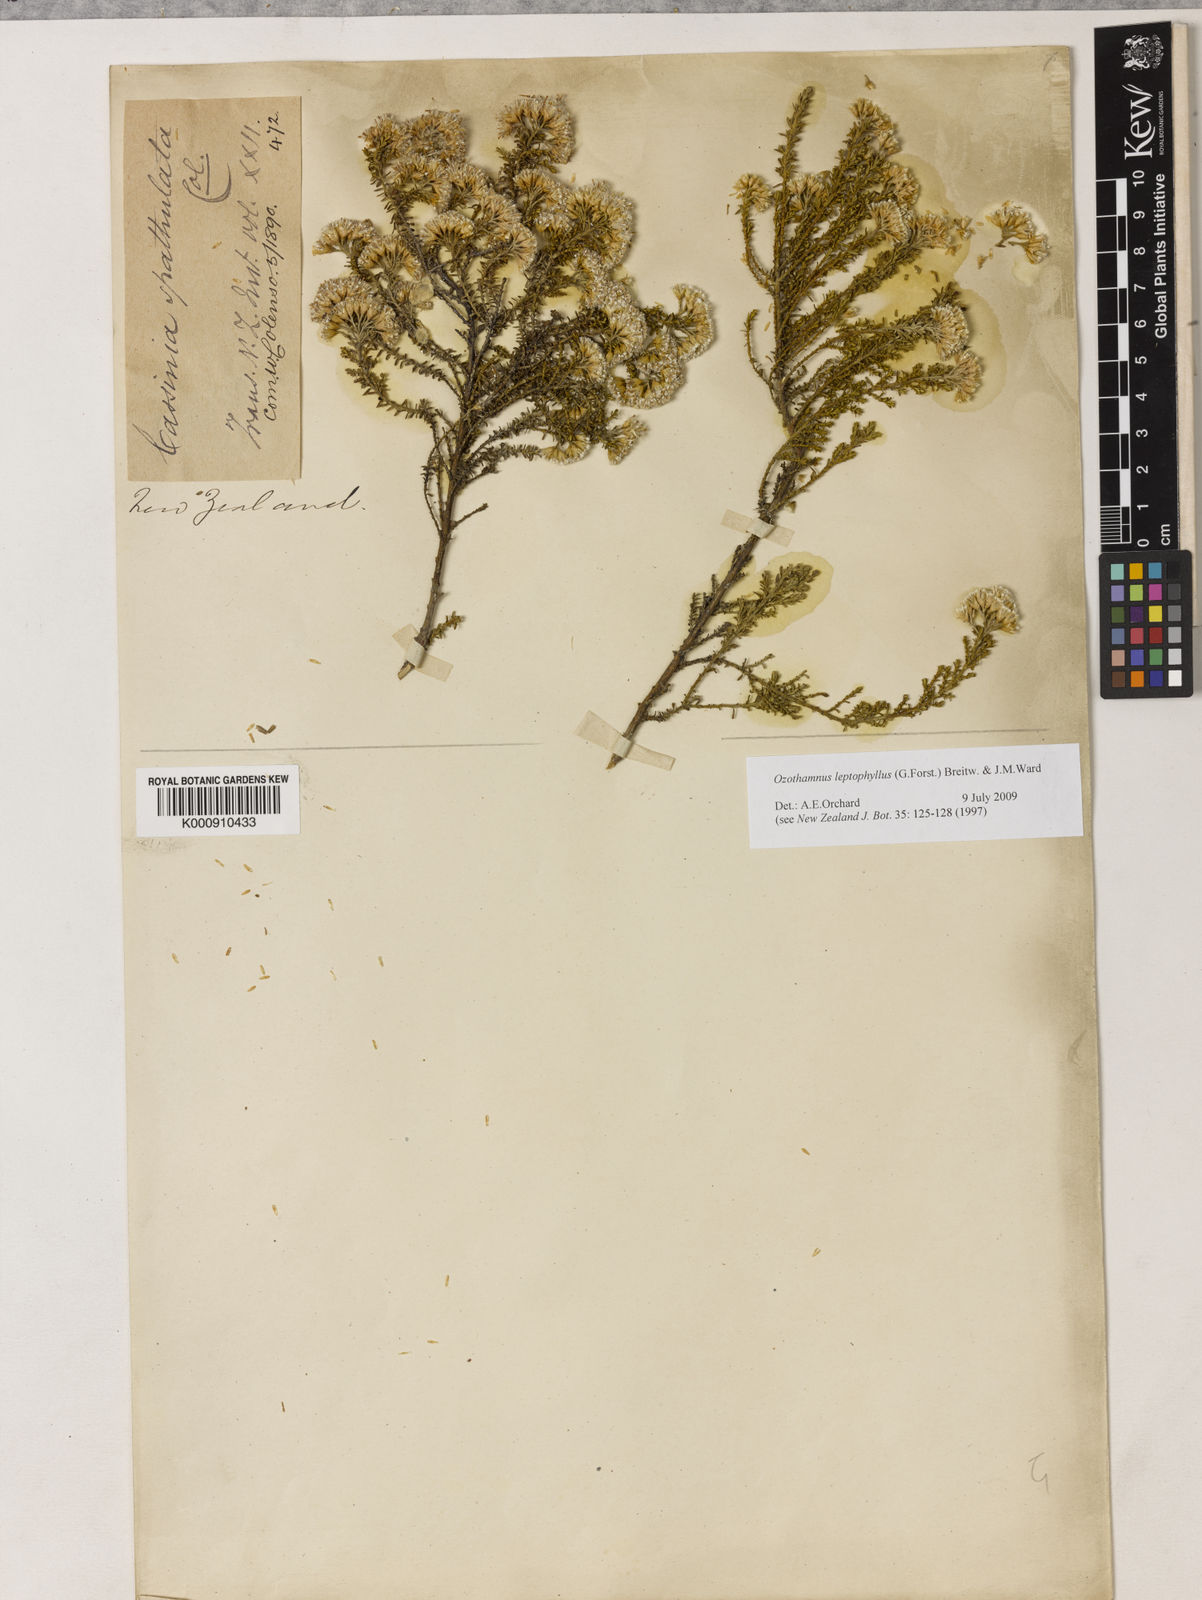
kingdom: Plantae
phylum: Tracheophyta
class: Magnoliopsida
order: Asterales
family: Asteraceae
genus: Ozothamnus
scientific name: Ozothamnus leptophyllus
